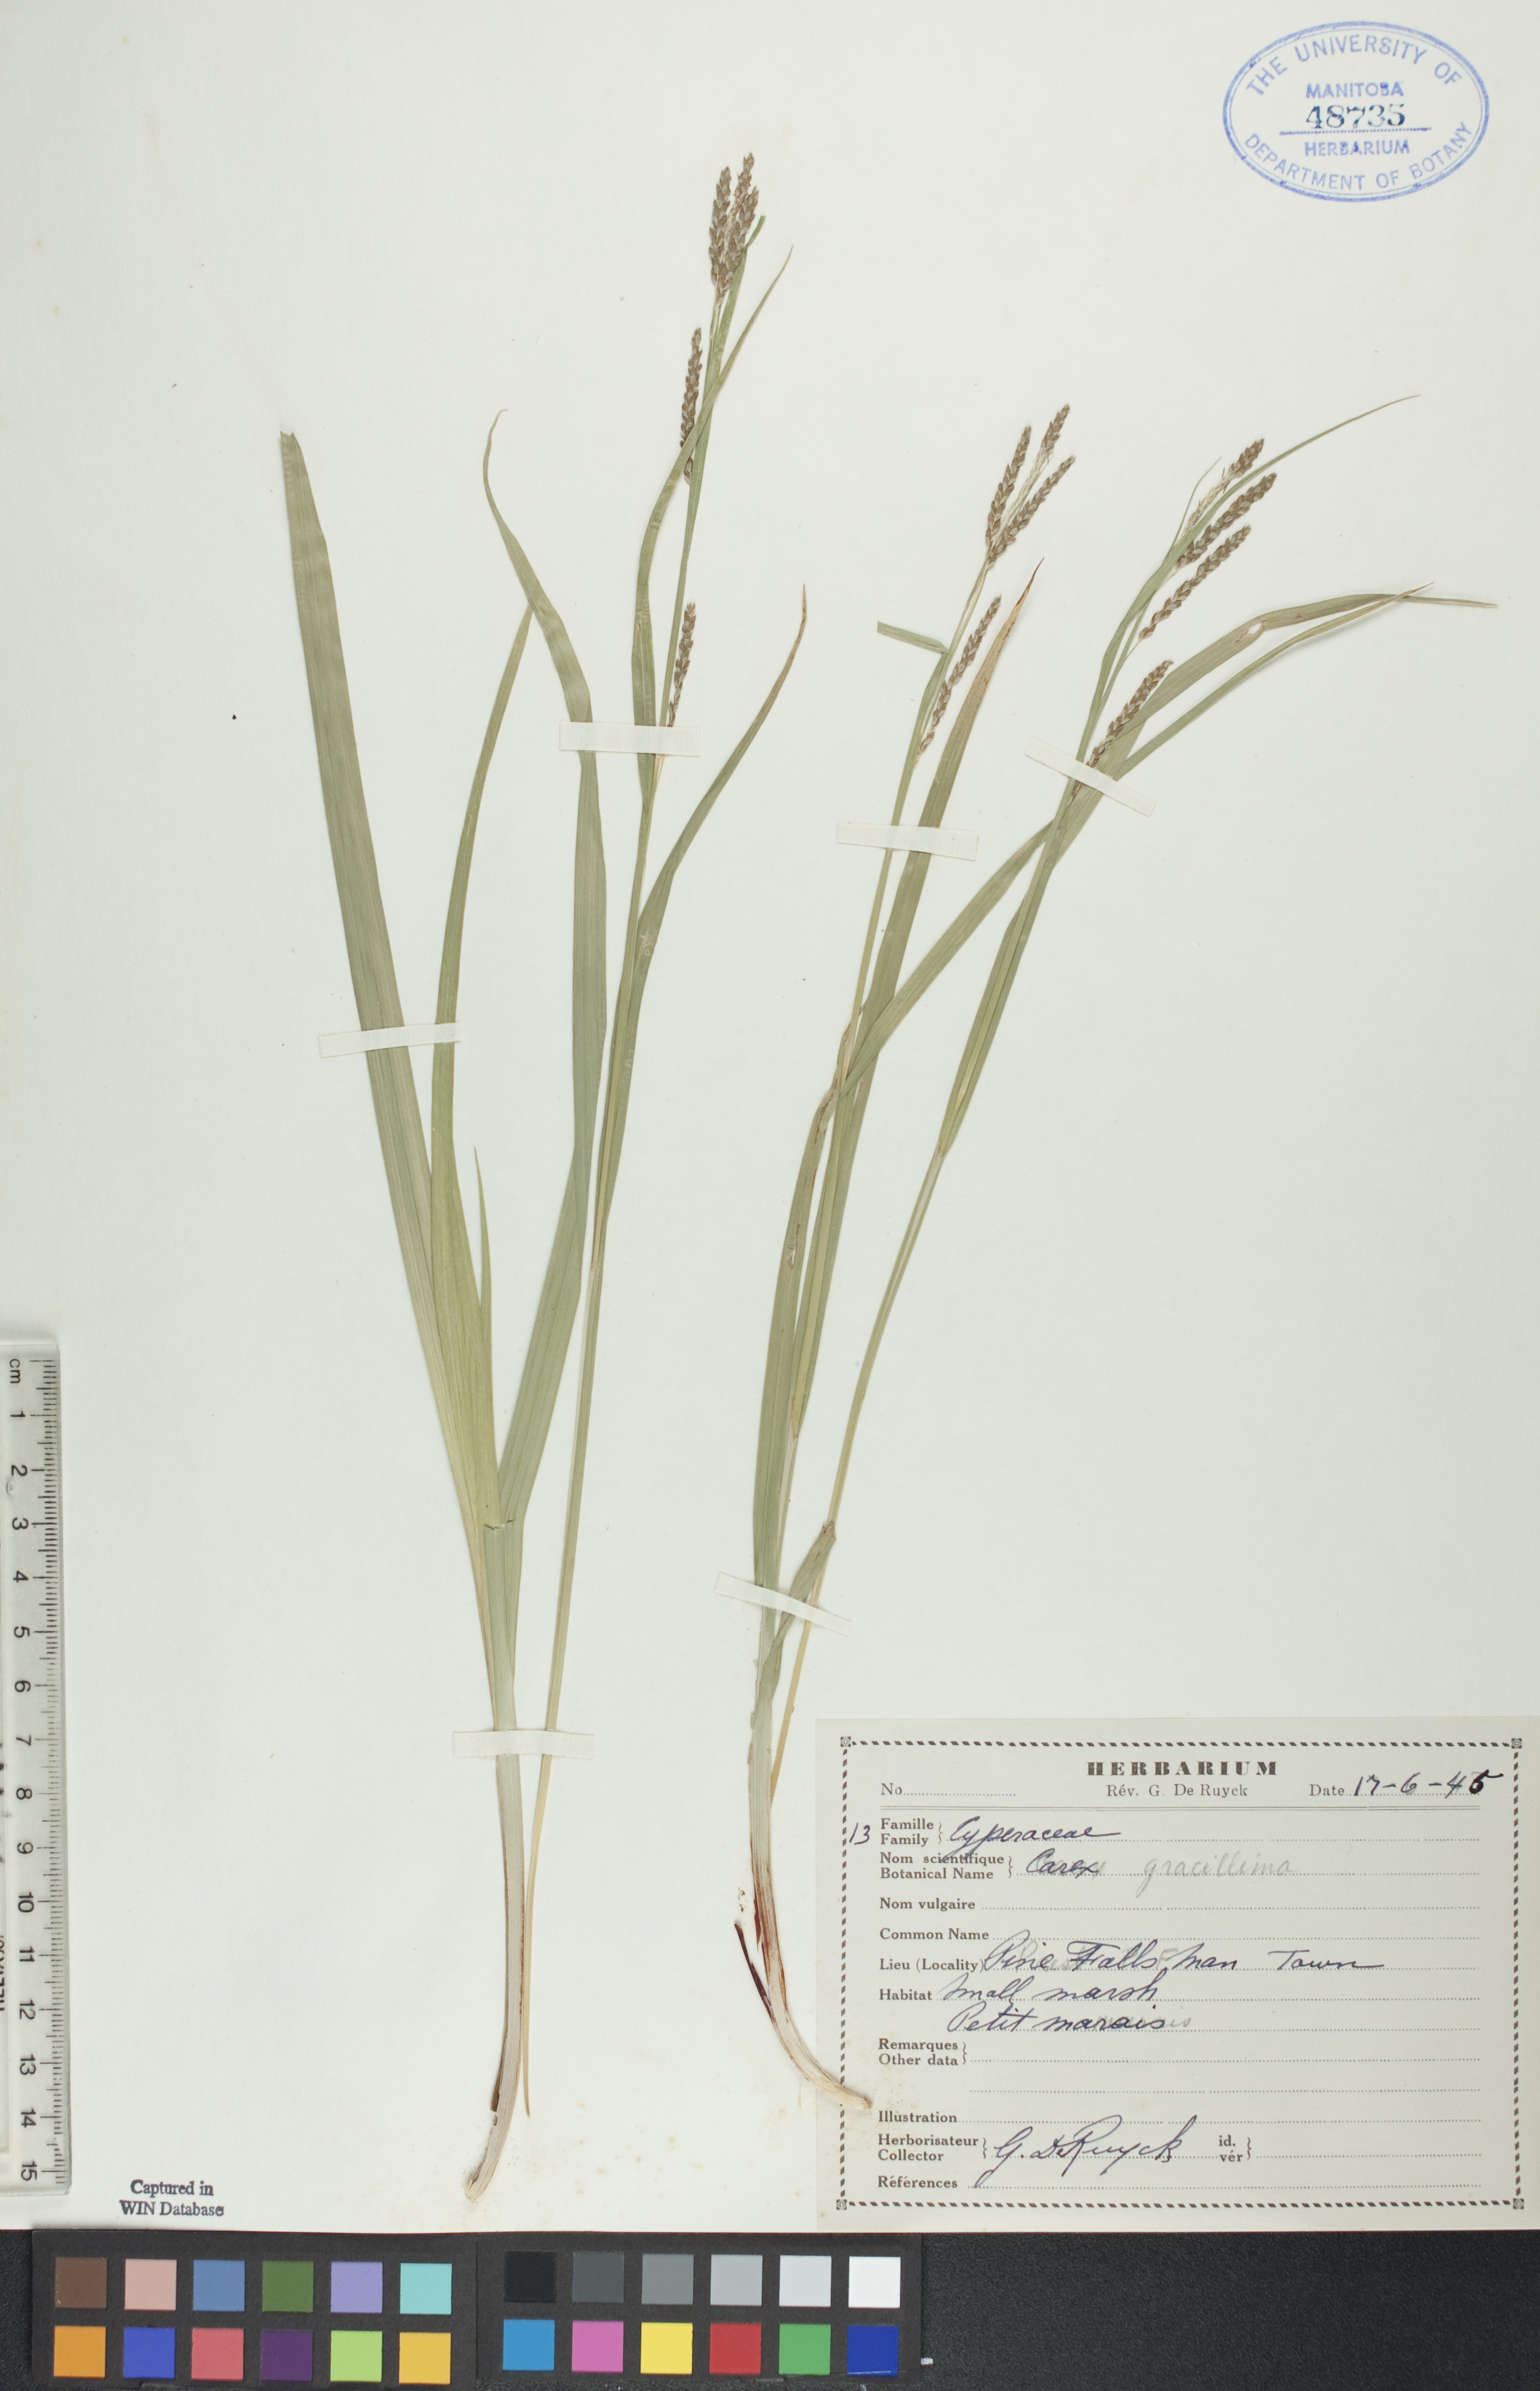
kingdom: Plantae
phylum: Tracheophyta
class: Liliopsida
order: Poales
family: Cyperaceae
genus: Carex
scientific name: Carex gracillima
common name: Graceful sedge
